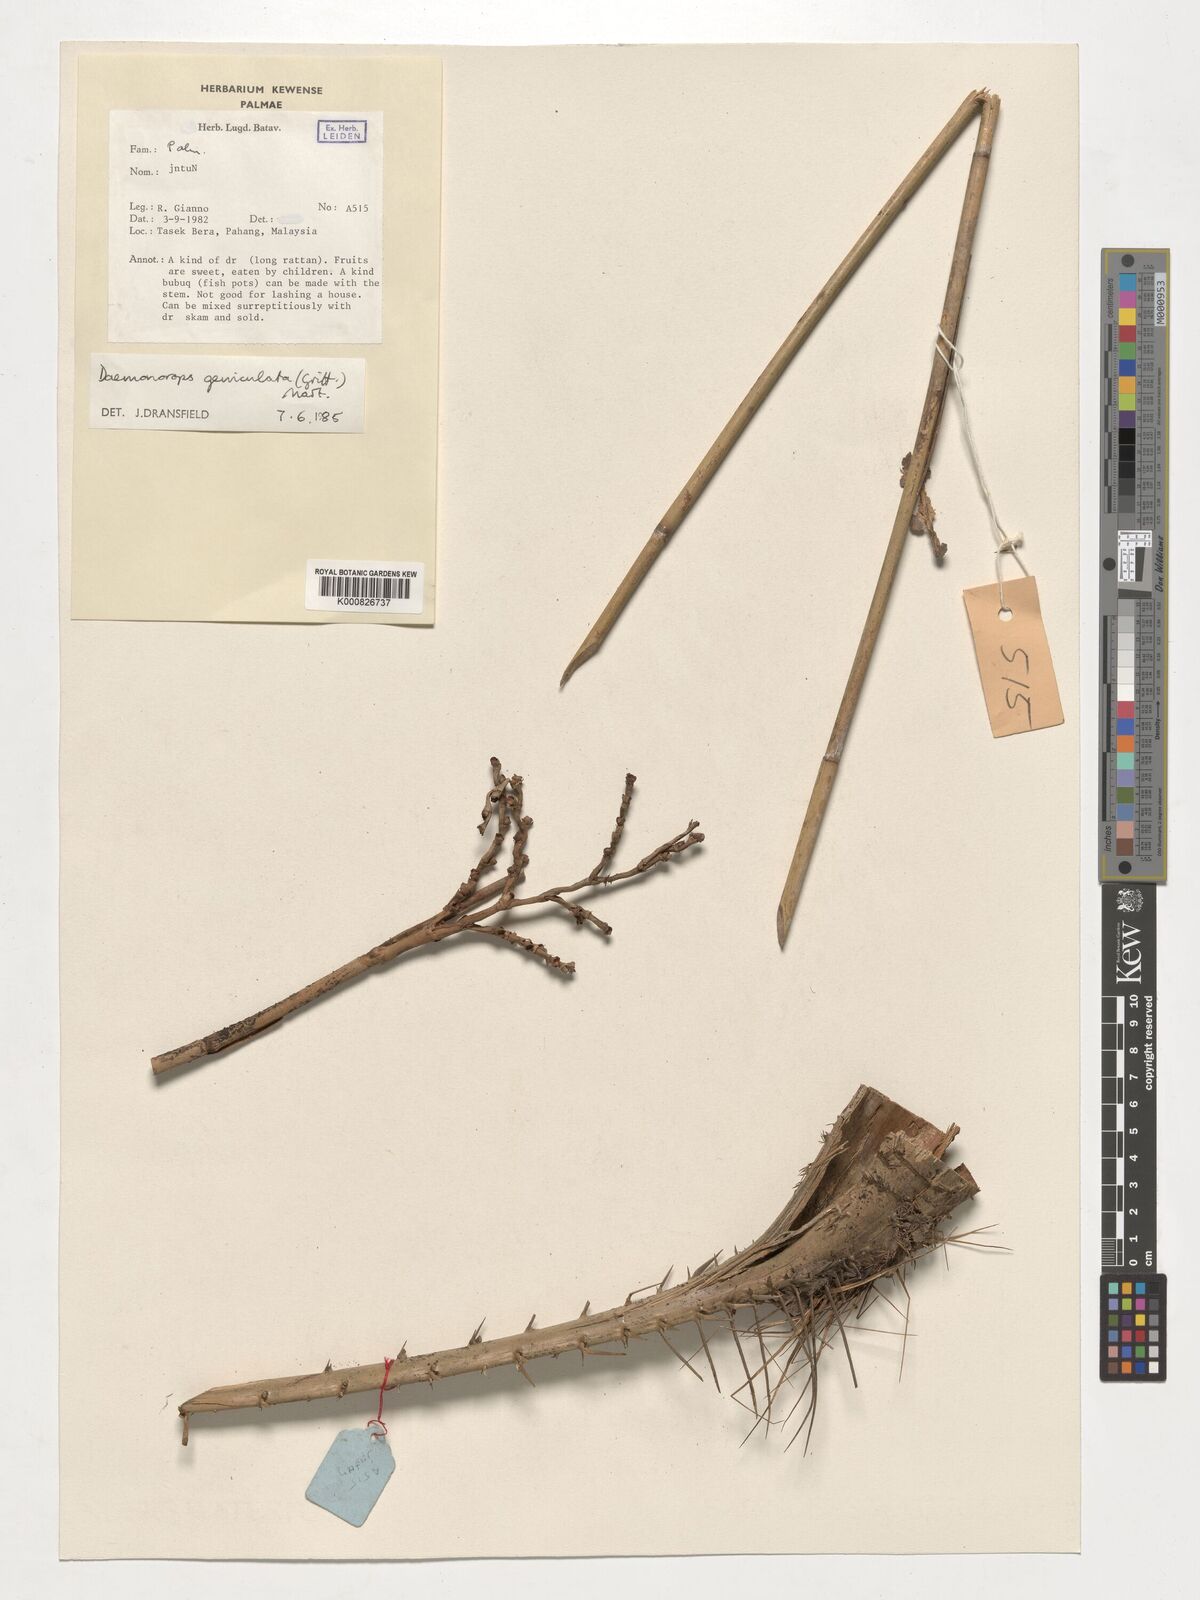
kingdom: Plantae
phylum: Tracheophyta
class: Liliopsida
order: Arecales
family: Arecaceae
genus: Calamus
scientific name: Calamus geniculatus
